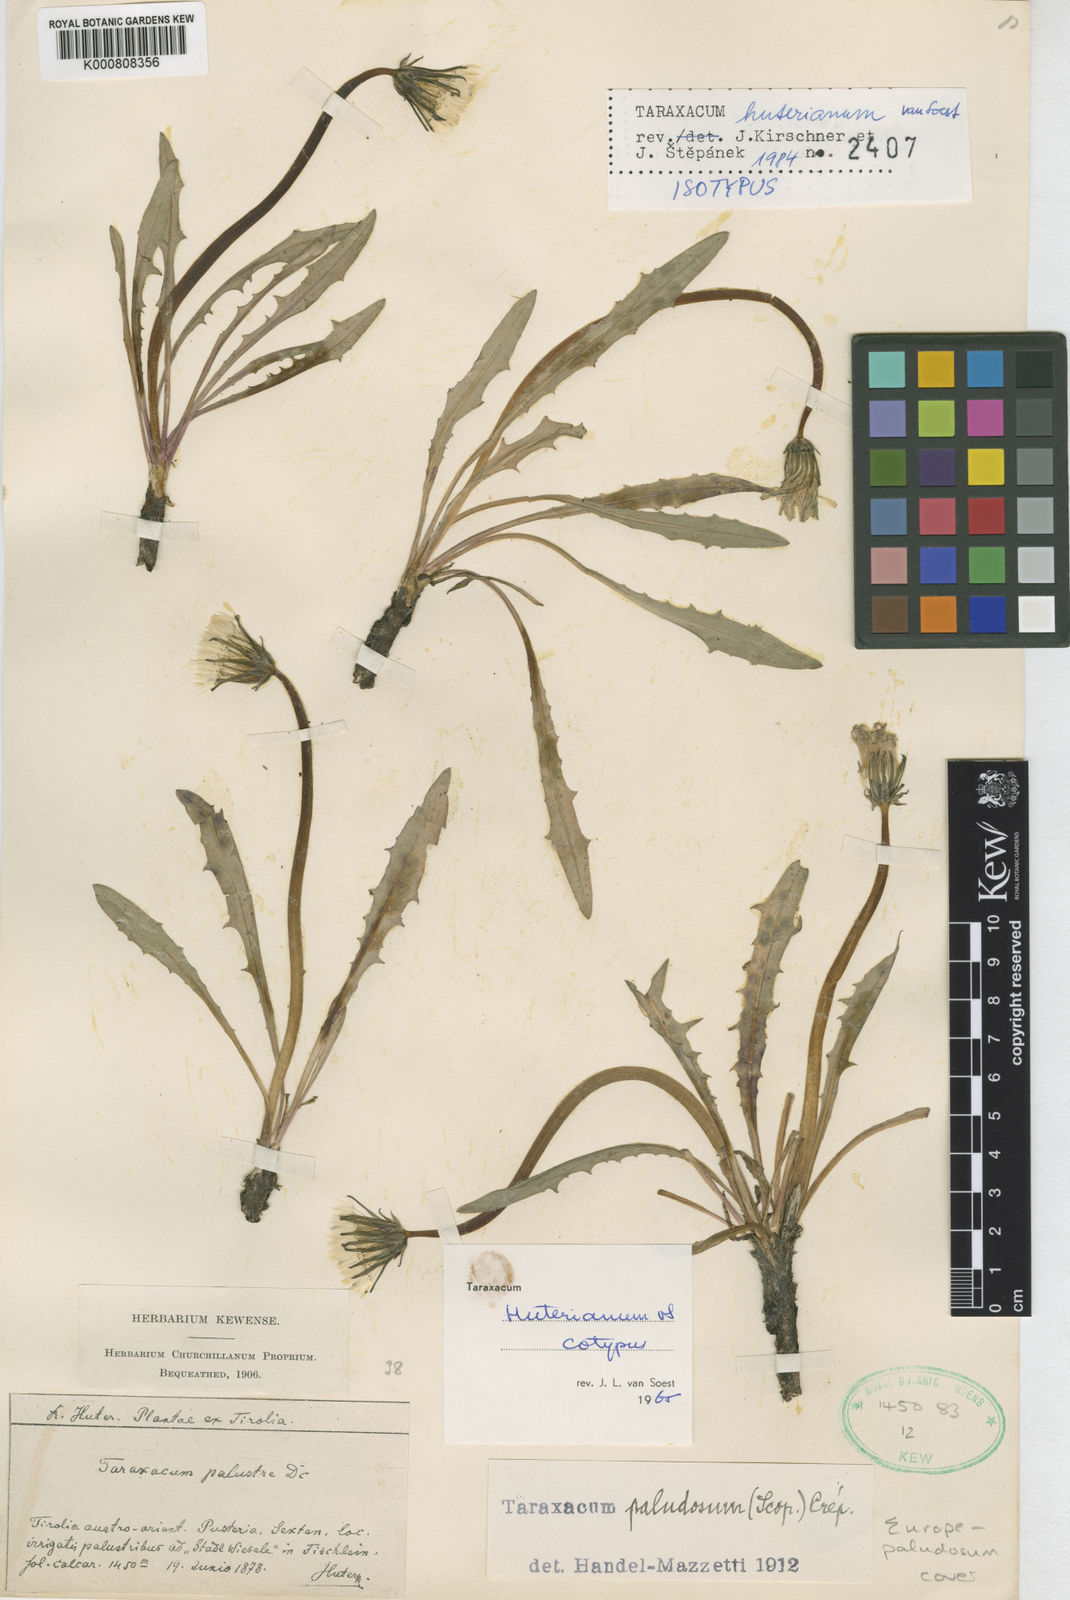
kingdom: Plantae
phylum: Tracheophyta
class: Magnoliopsida
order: Asterales
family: Asteraceae
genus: Taraxacum
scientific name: Taraxacum huterianum
